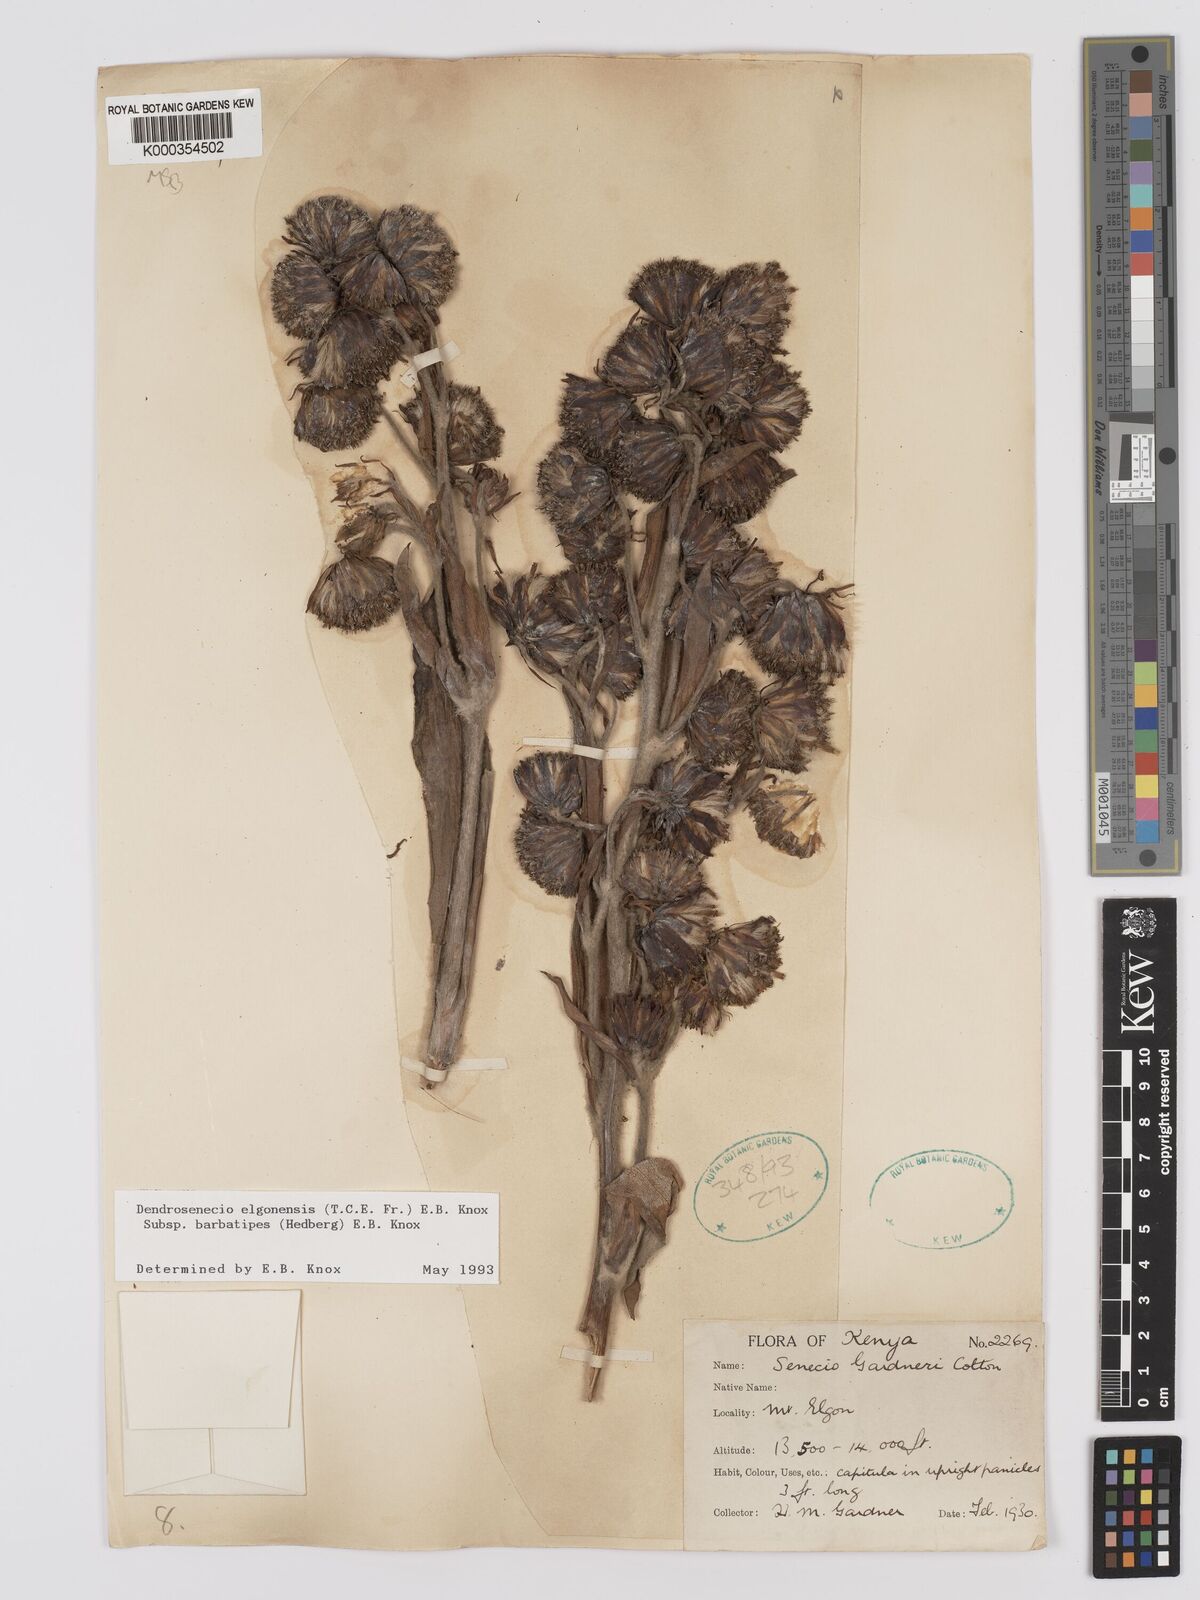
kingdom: Plantae
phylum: Tracheophyta
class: Magnoliopsida
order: Asterales
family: Asteraceae
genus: Dendrosenecio
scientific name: Dendrosenecio elgonensis
